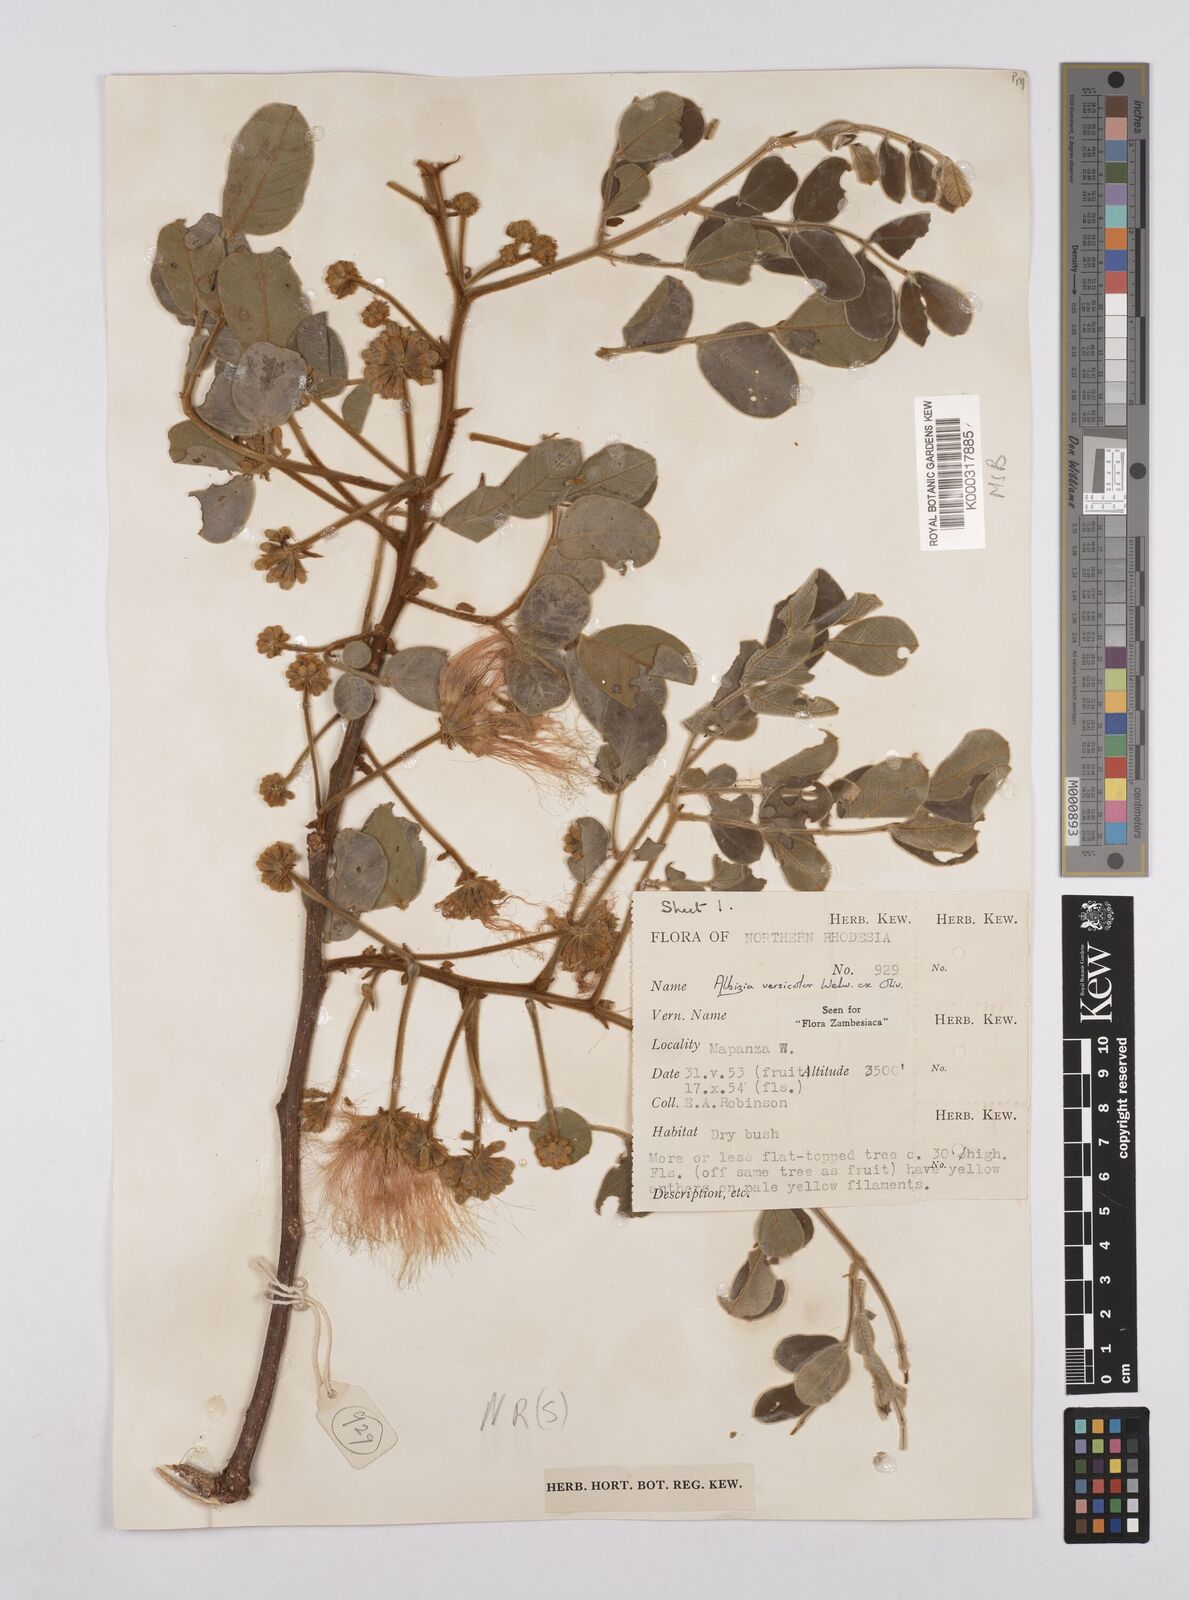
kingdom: Plantae
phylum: Tracheophyta
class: Magnoliopsida
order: Fabales
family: Fabaceae
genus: Albizia
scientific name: Albizia versicolor
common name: Poisonpod
